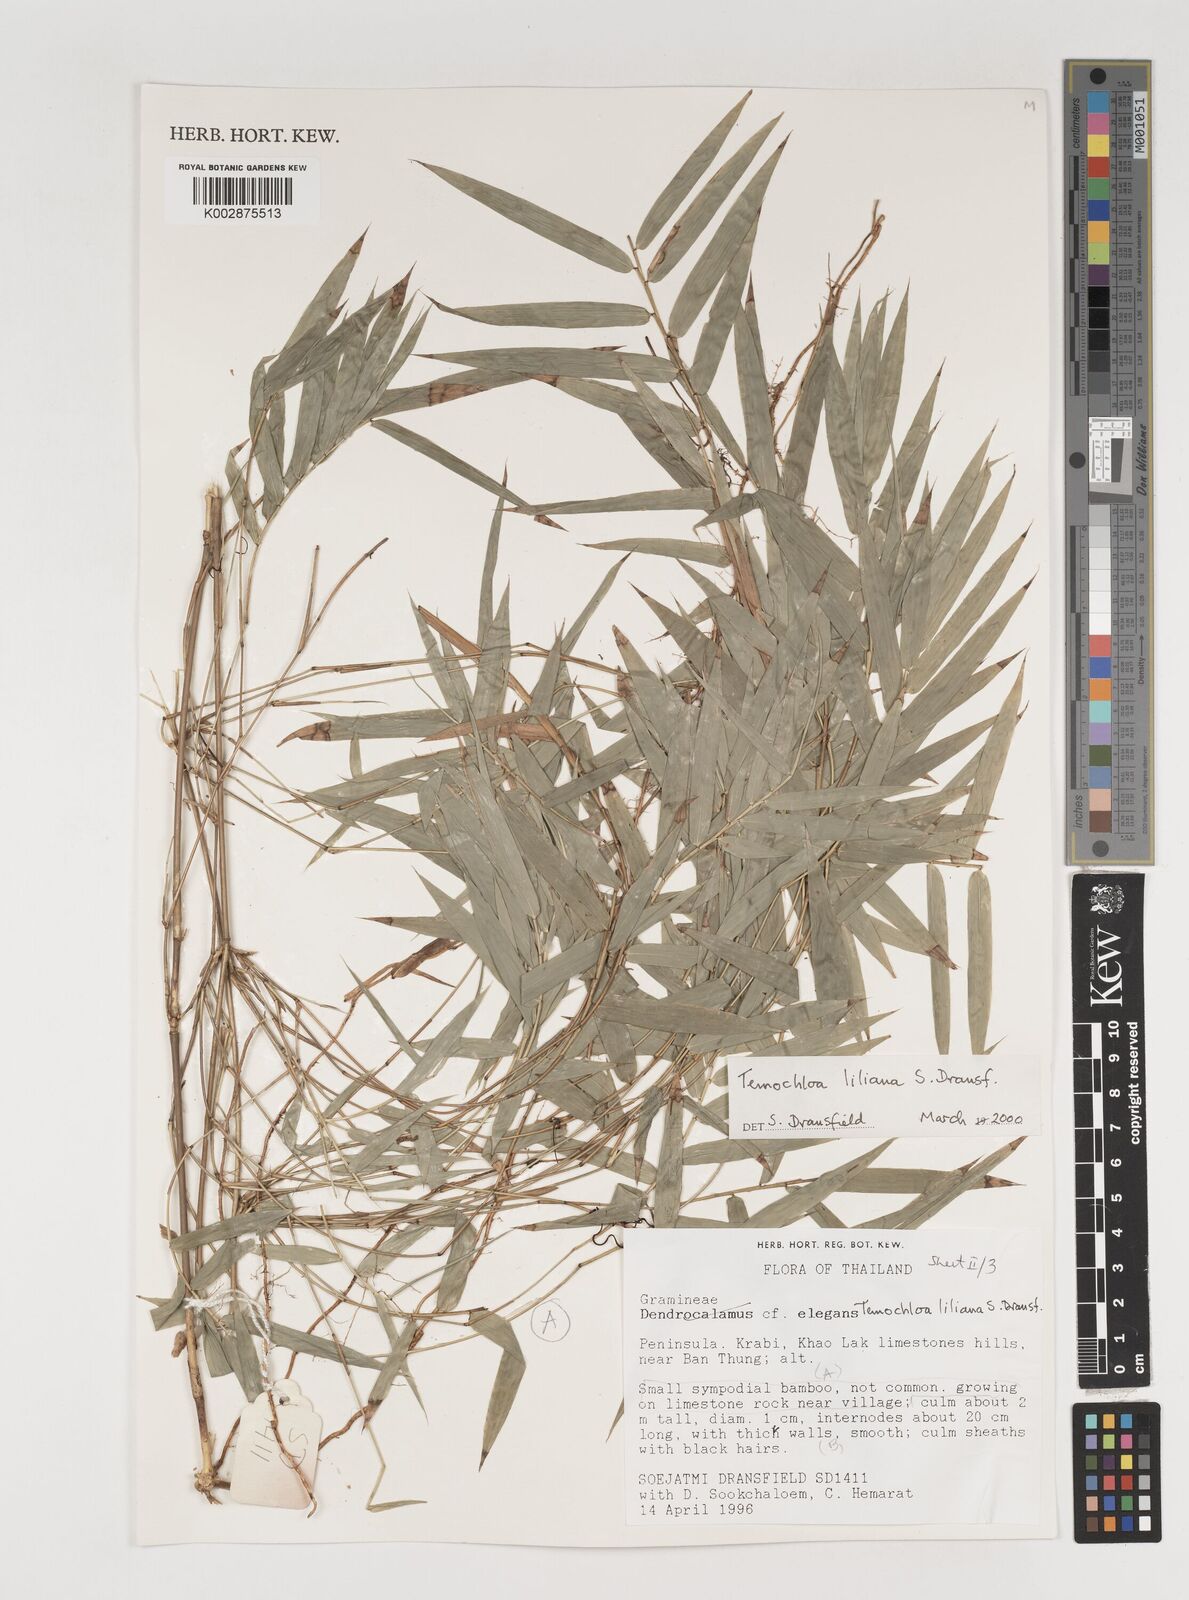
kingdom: Plantae
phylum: Tracheophyta
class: Liliopsida
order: Poales
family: Poaceae
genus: Temochloa
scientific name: Temochloa liliana
